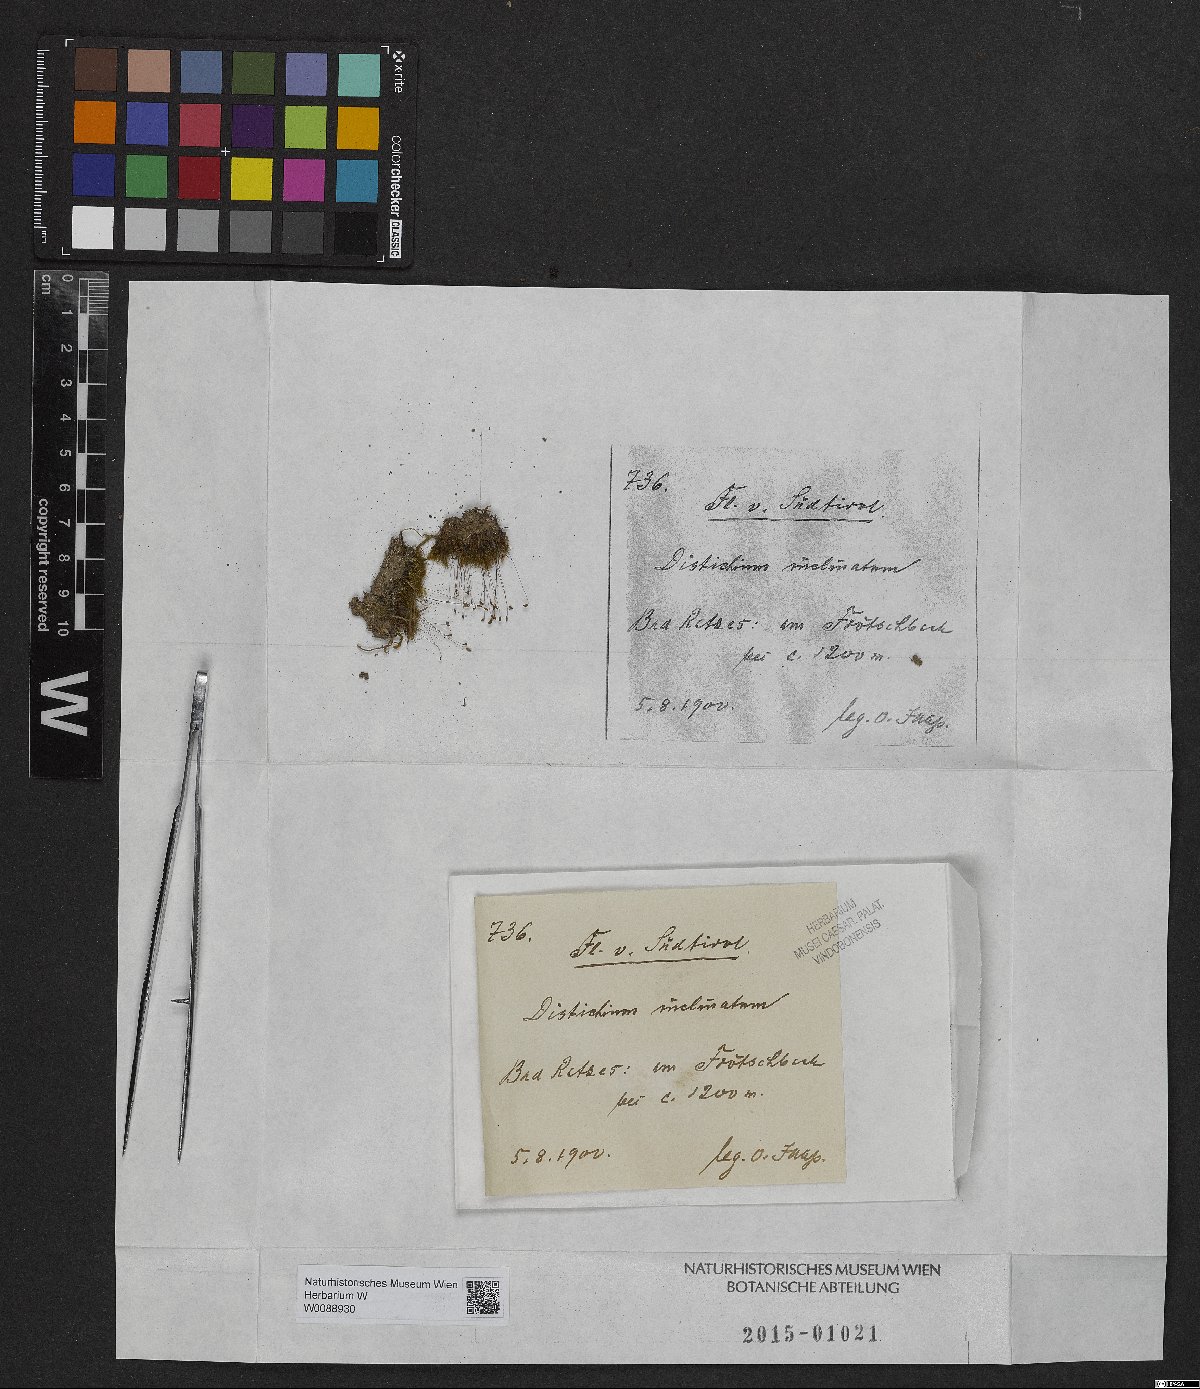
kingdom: Plantae
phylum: Bryophyta
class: Bryopsida
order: Scouleriales
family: Distichiaceae
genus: Distichium
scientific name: Distichium inclinatum
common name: Inclined iris moss
